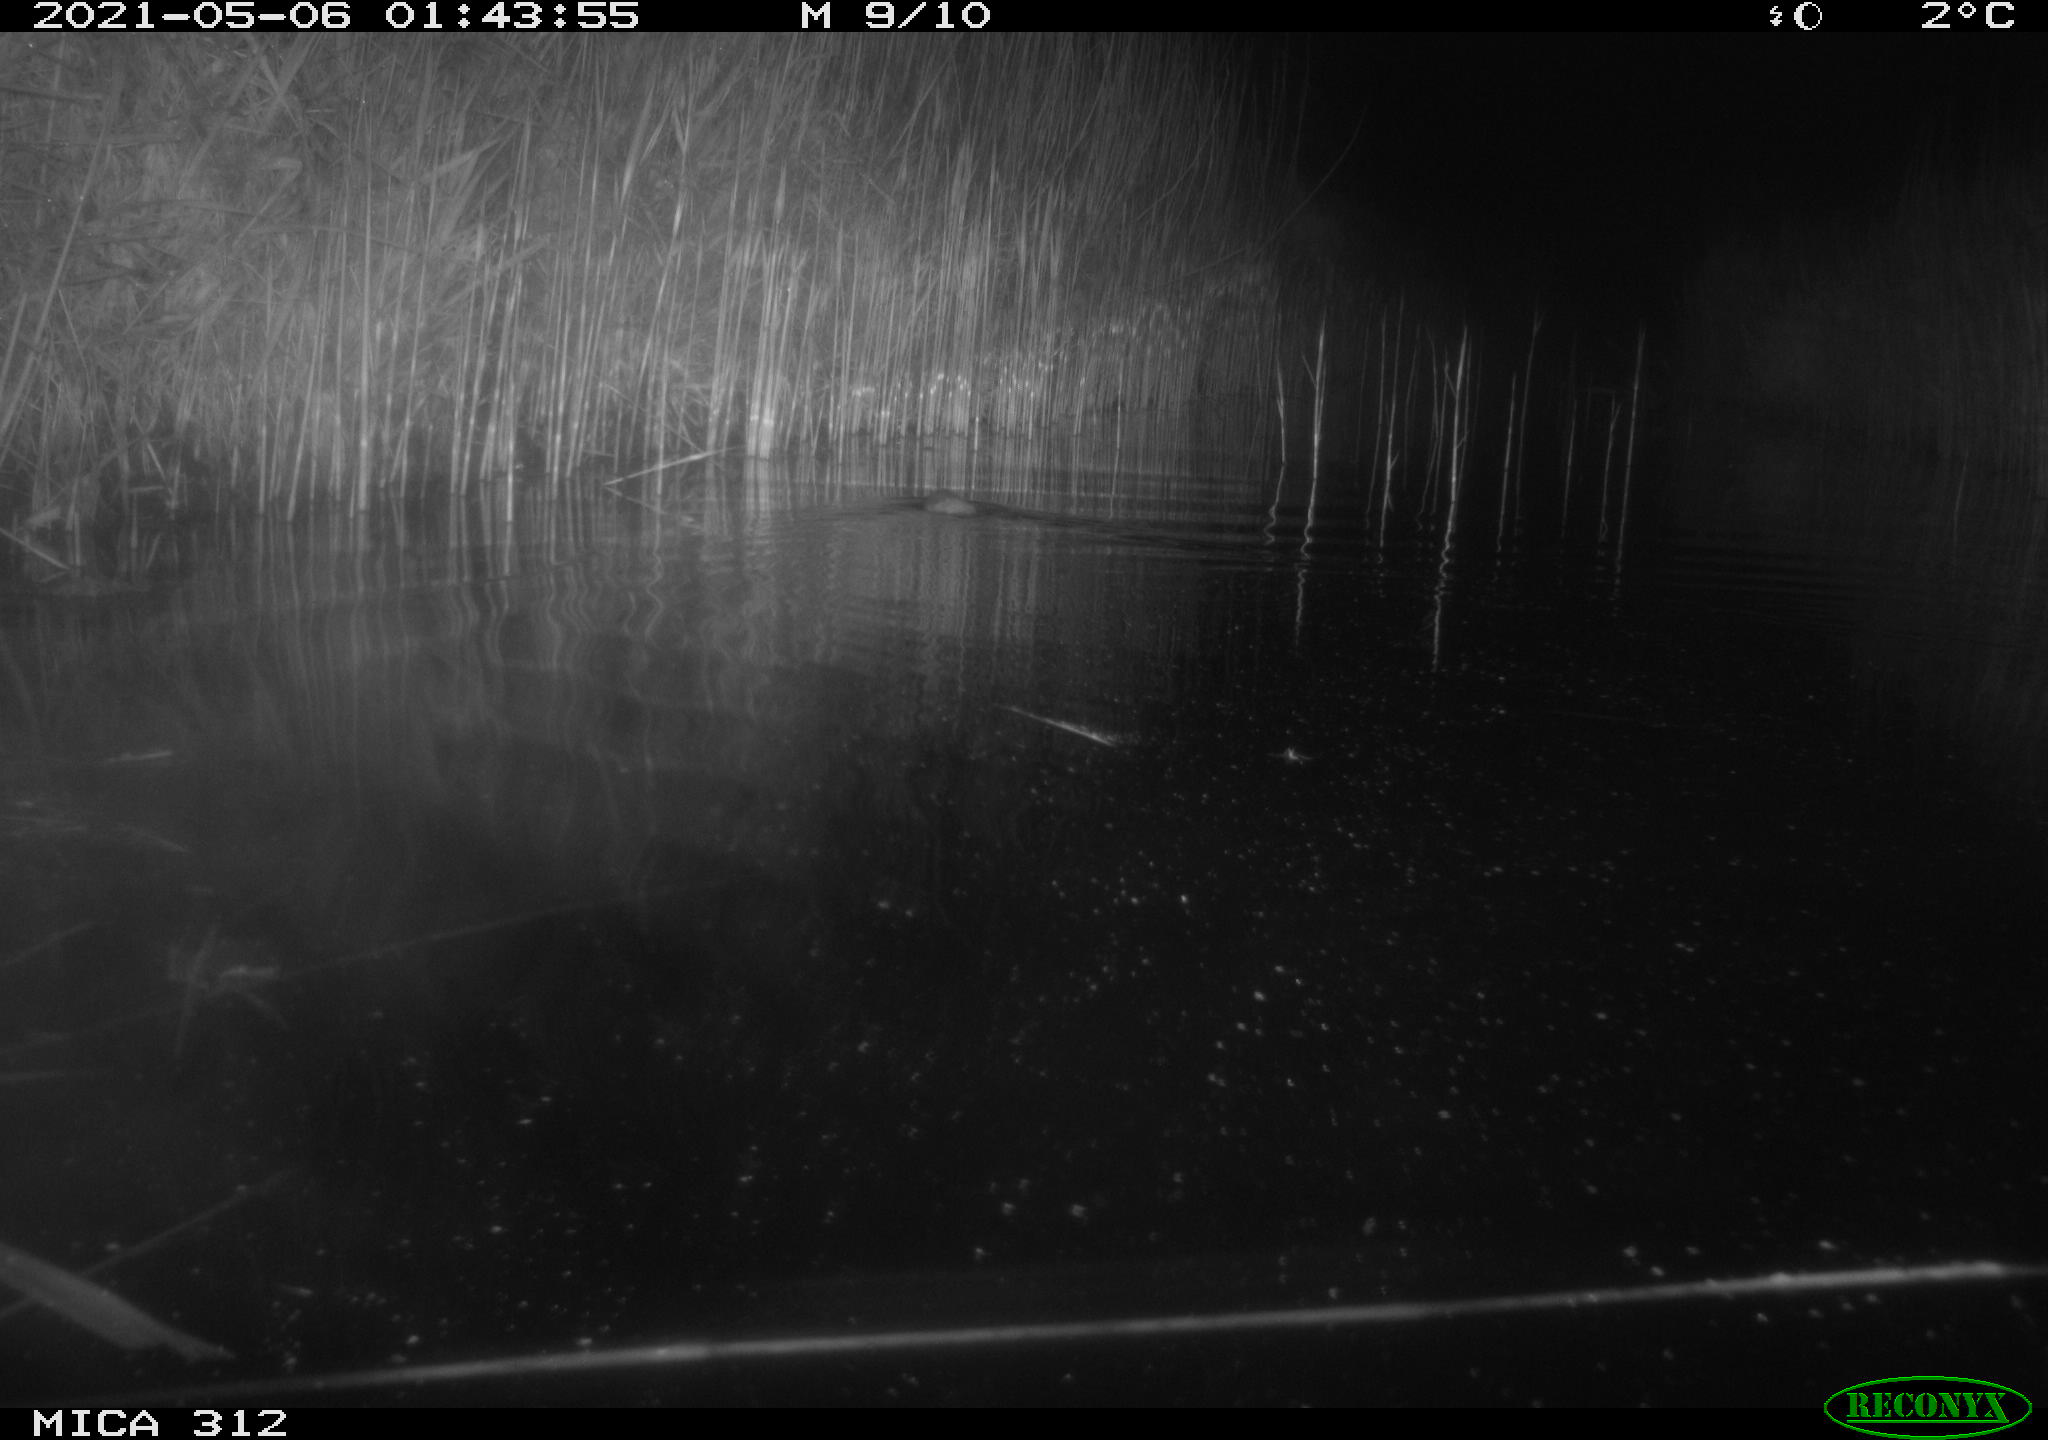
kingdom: Animalia
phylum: Chordata
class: Mammalia
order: Rodentia
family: Muridae
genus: Rattus
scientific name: Rattus norvegicus
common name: Brown rat
